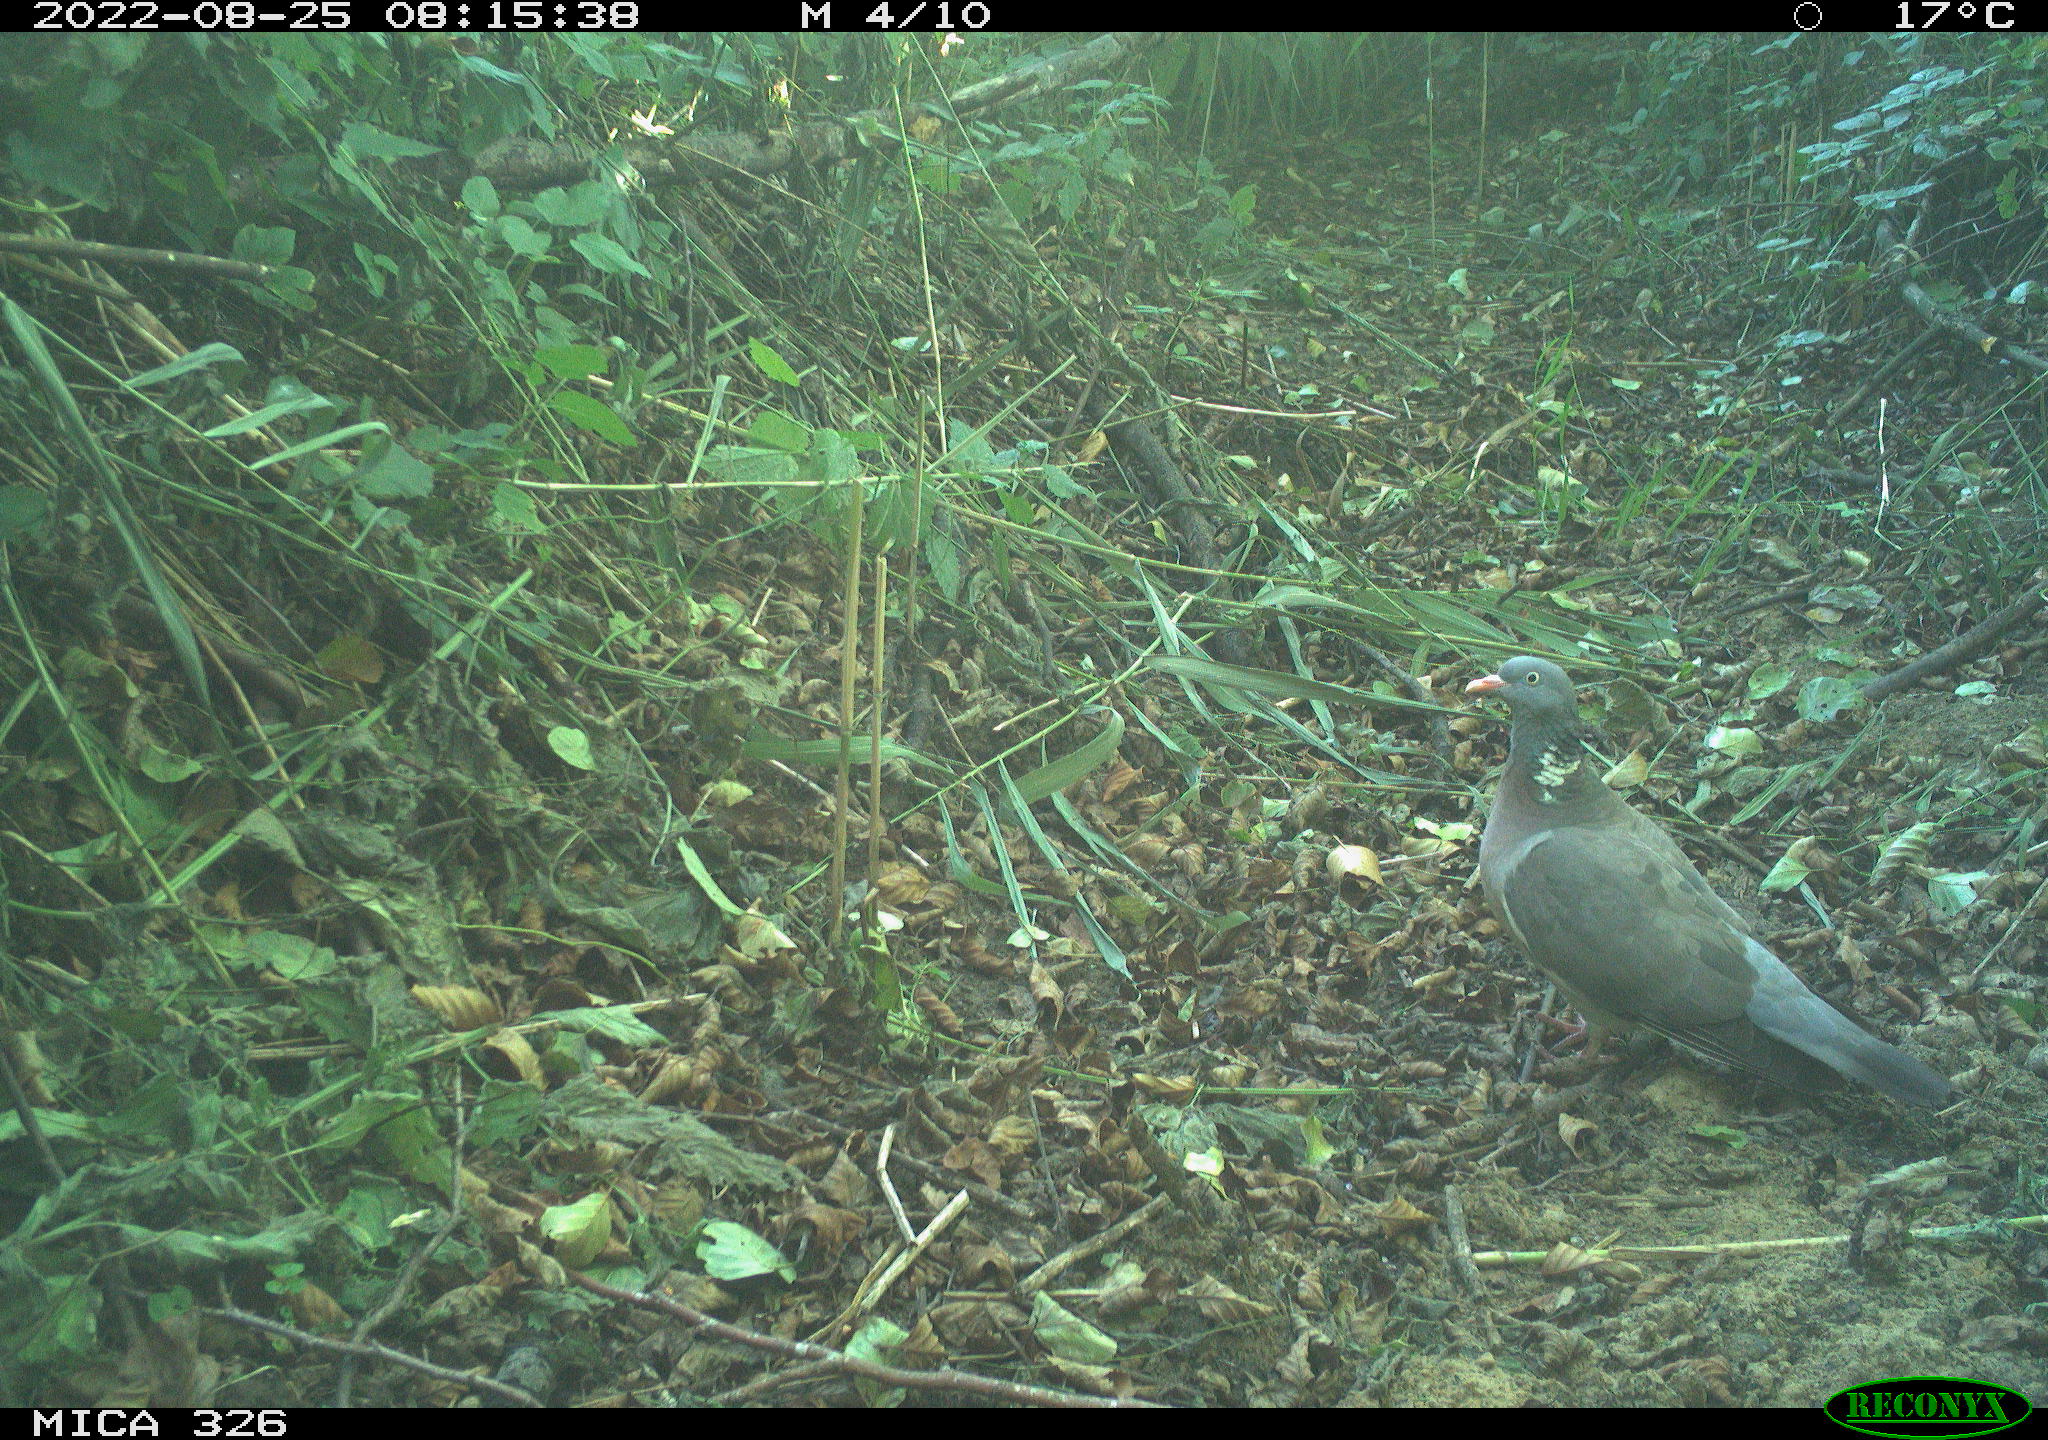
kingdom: Animalia
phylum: Chordata
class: Aves
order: Columbiformes
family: Columbidae
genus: Columba
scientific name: Columba palumbus
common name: Common wood pigeon
